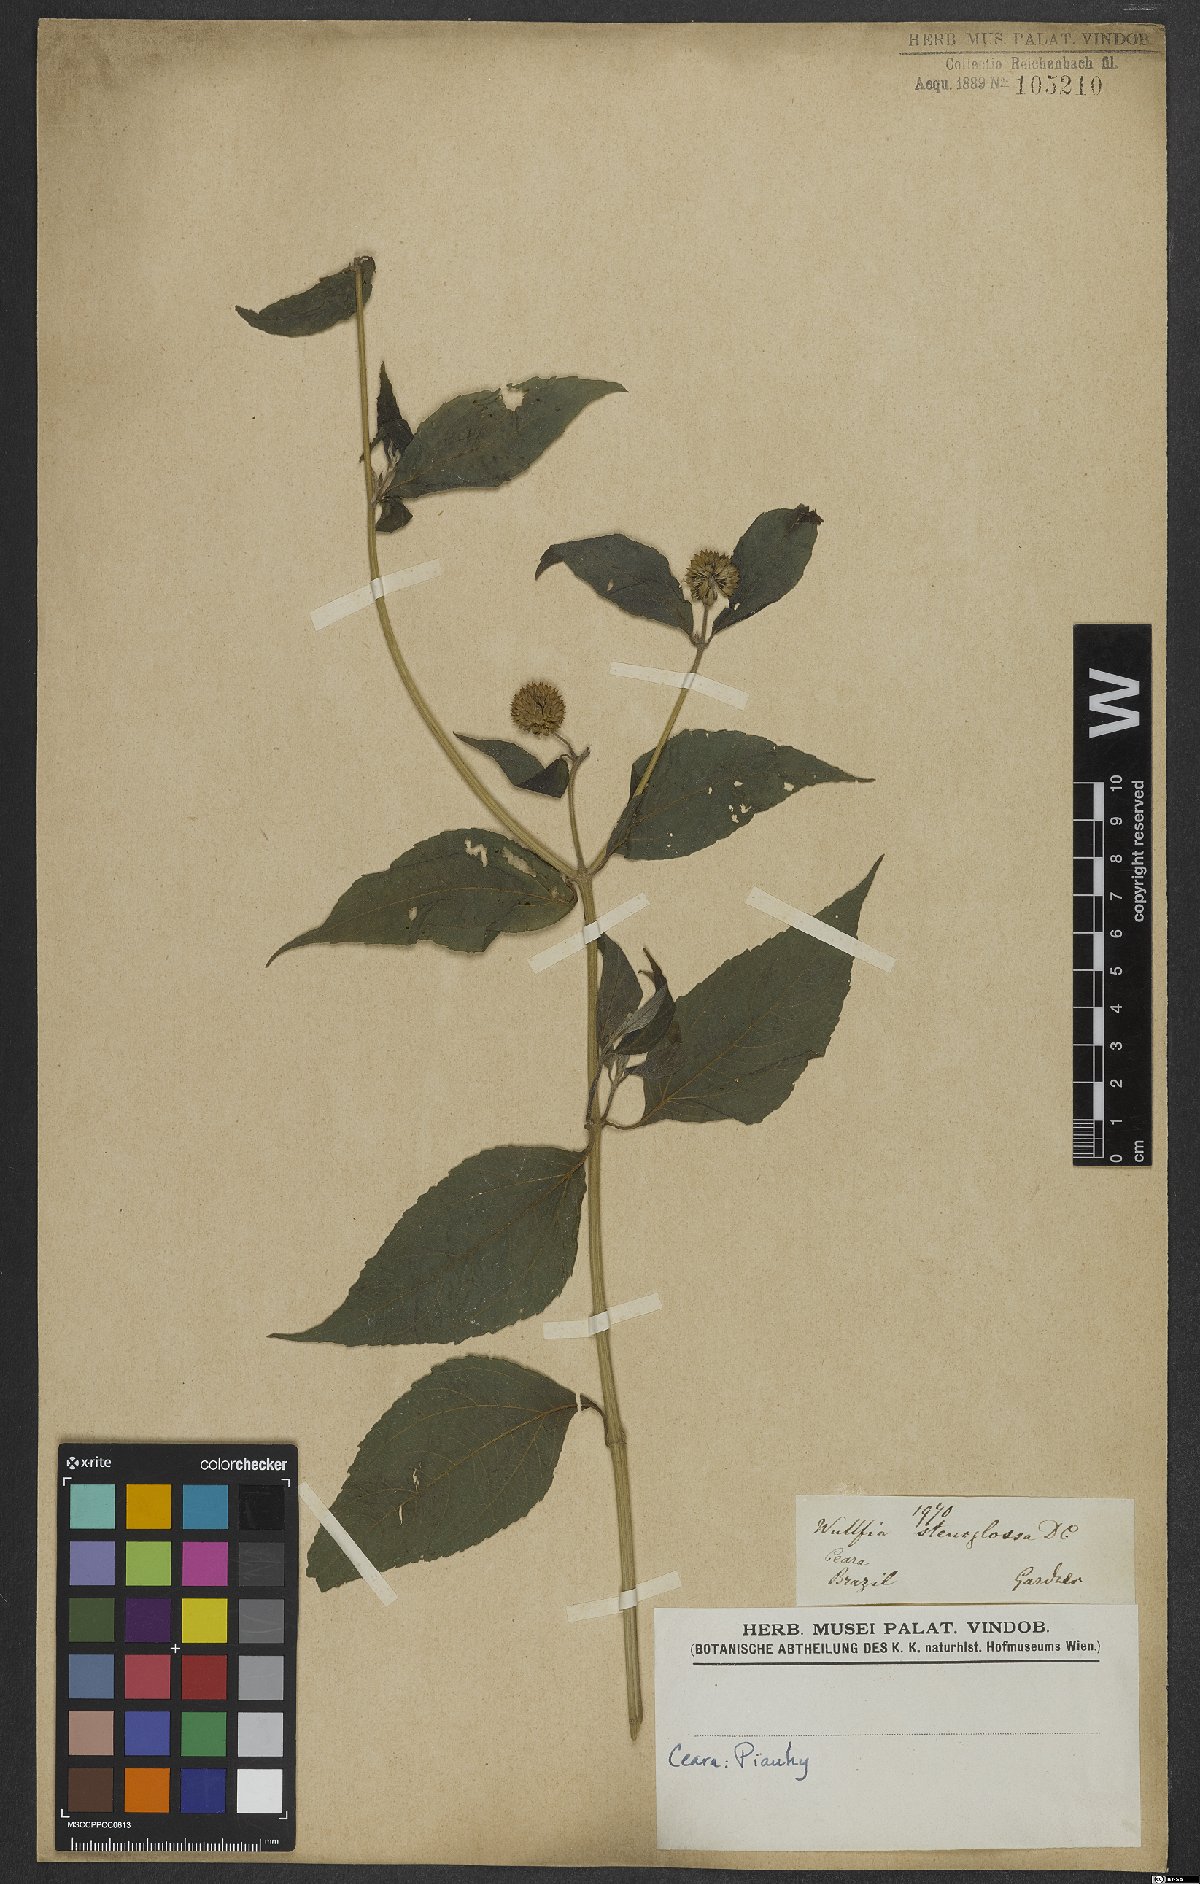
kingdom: Plantae
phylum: Tracheophyta
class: Magnoliopsida
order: Asterales
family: Asteraceae
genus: Tilesia
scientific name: Tilesia
